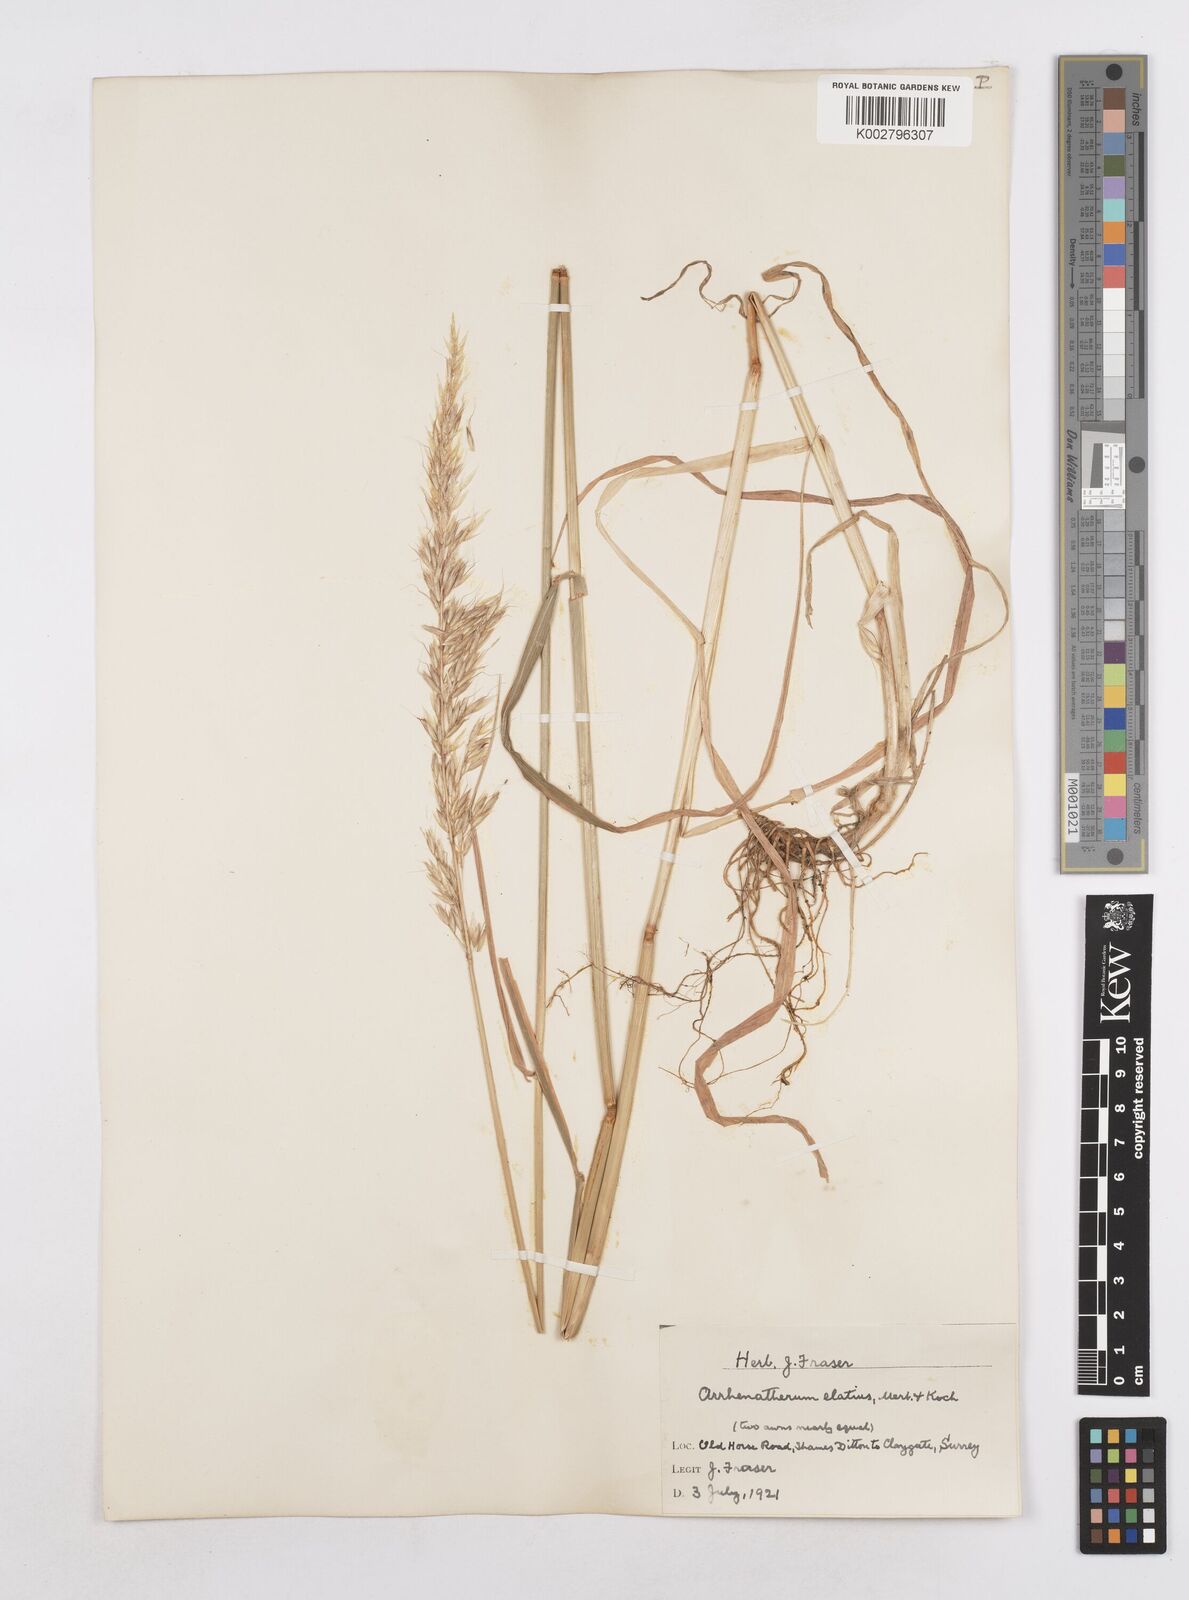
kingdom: Plantae
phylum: Tracheophyta
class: Liliopsida
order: Poales
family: Poaceae
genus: Arrhenatherum
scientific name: Arrhenatherum elatius
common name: Tall oatgrass
